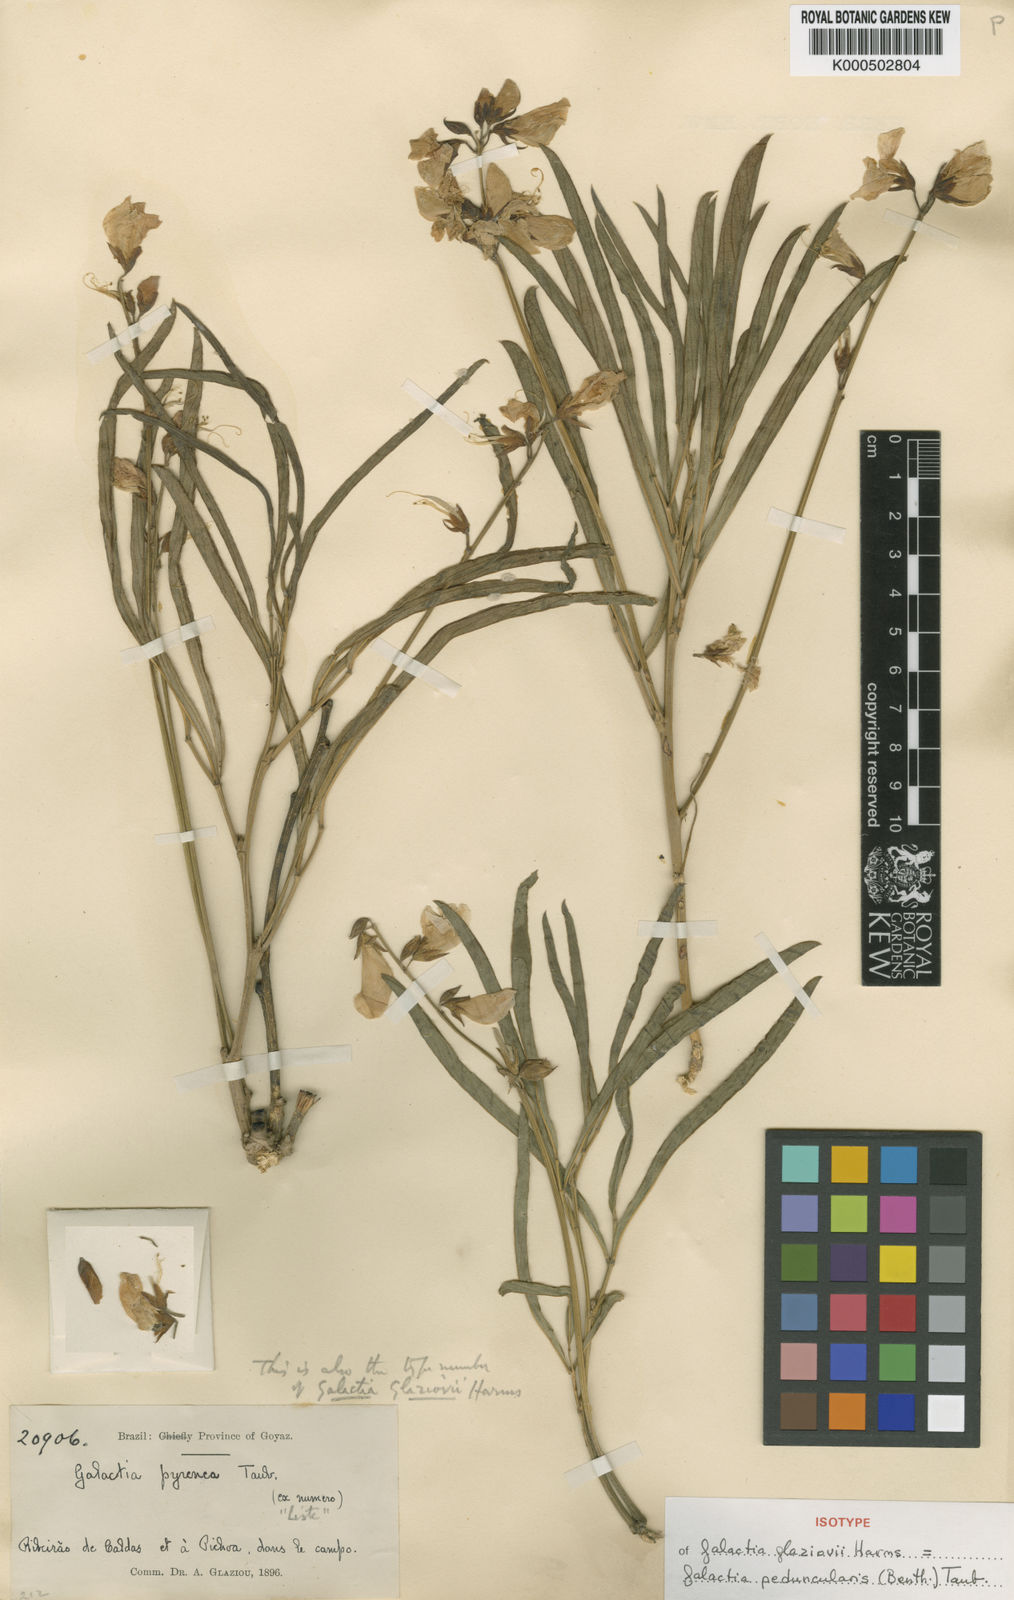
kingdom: Plantae
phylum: Tracheophyta
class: Magnoliopsida
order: Fabales
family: Fabaceae
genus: Galactia
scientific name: Galactia
